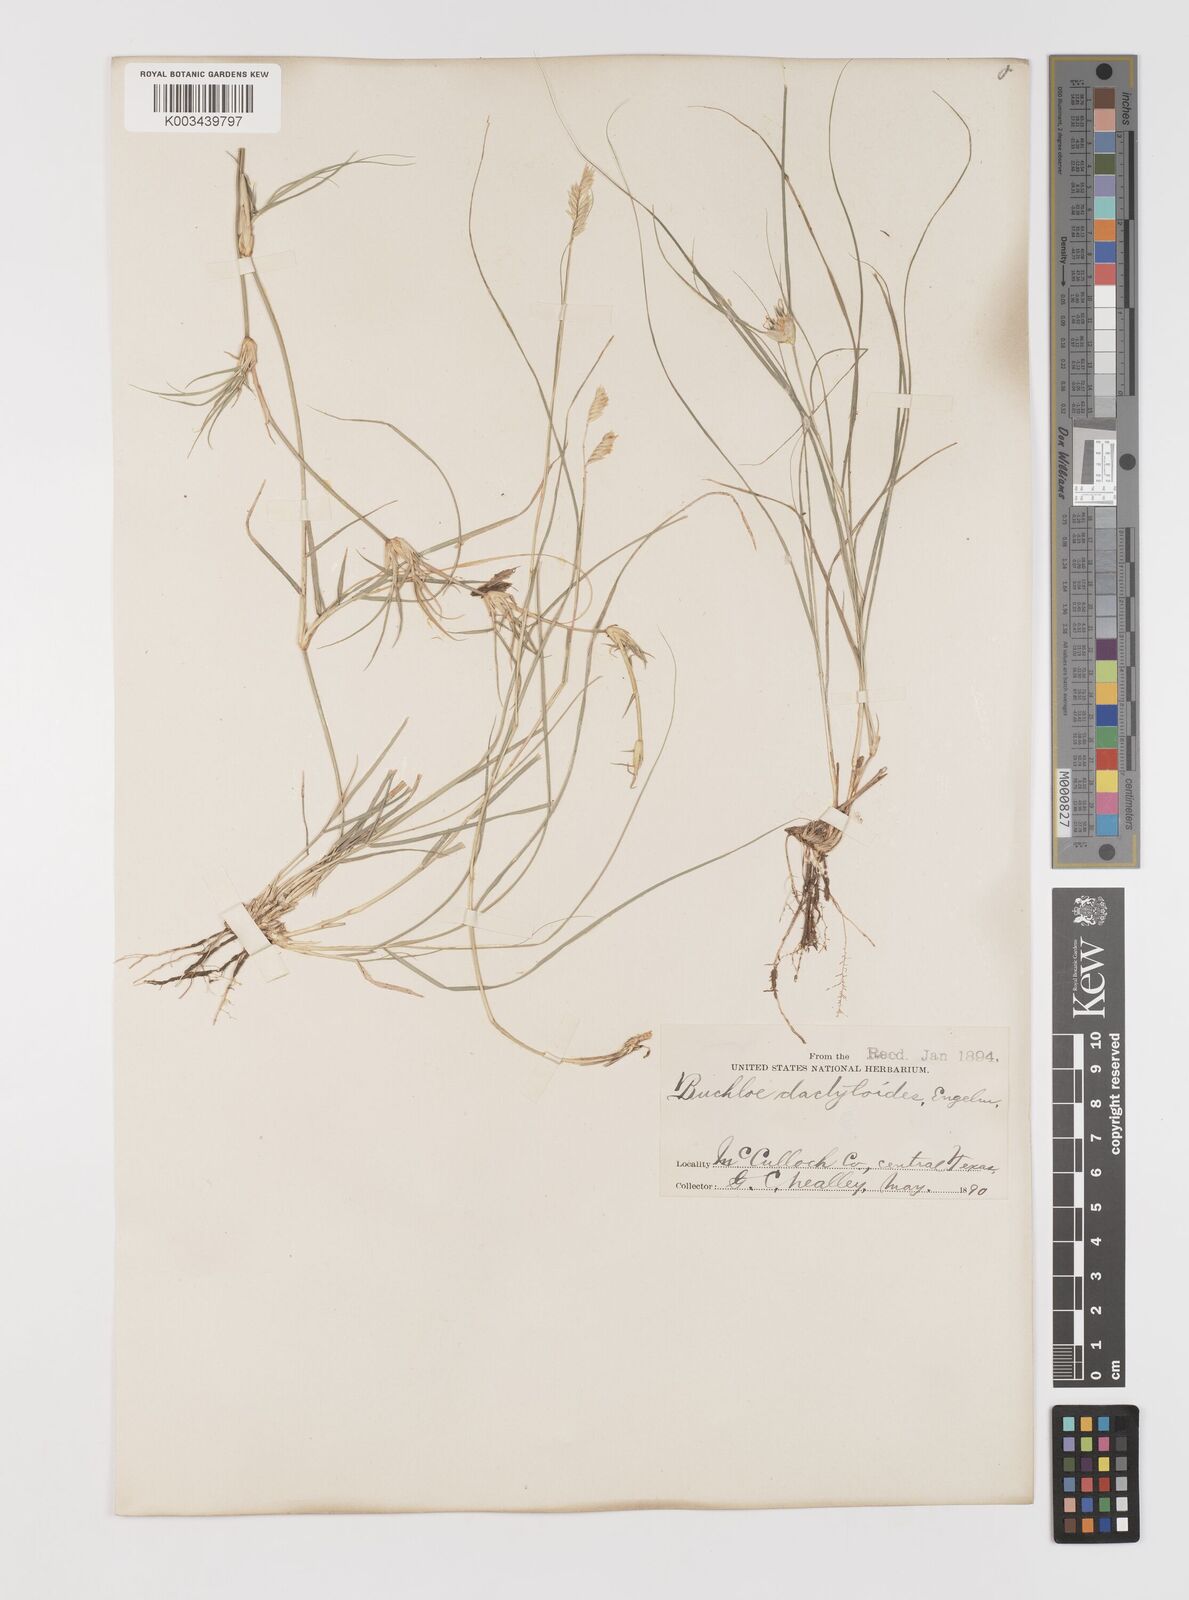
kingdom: Plantae
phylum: Tracheophyta
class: Liliopsida
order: Poales
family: Poaceae
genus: Bouteloua
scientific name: Bouteloua dactyloides
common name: Buffalo grass
